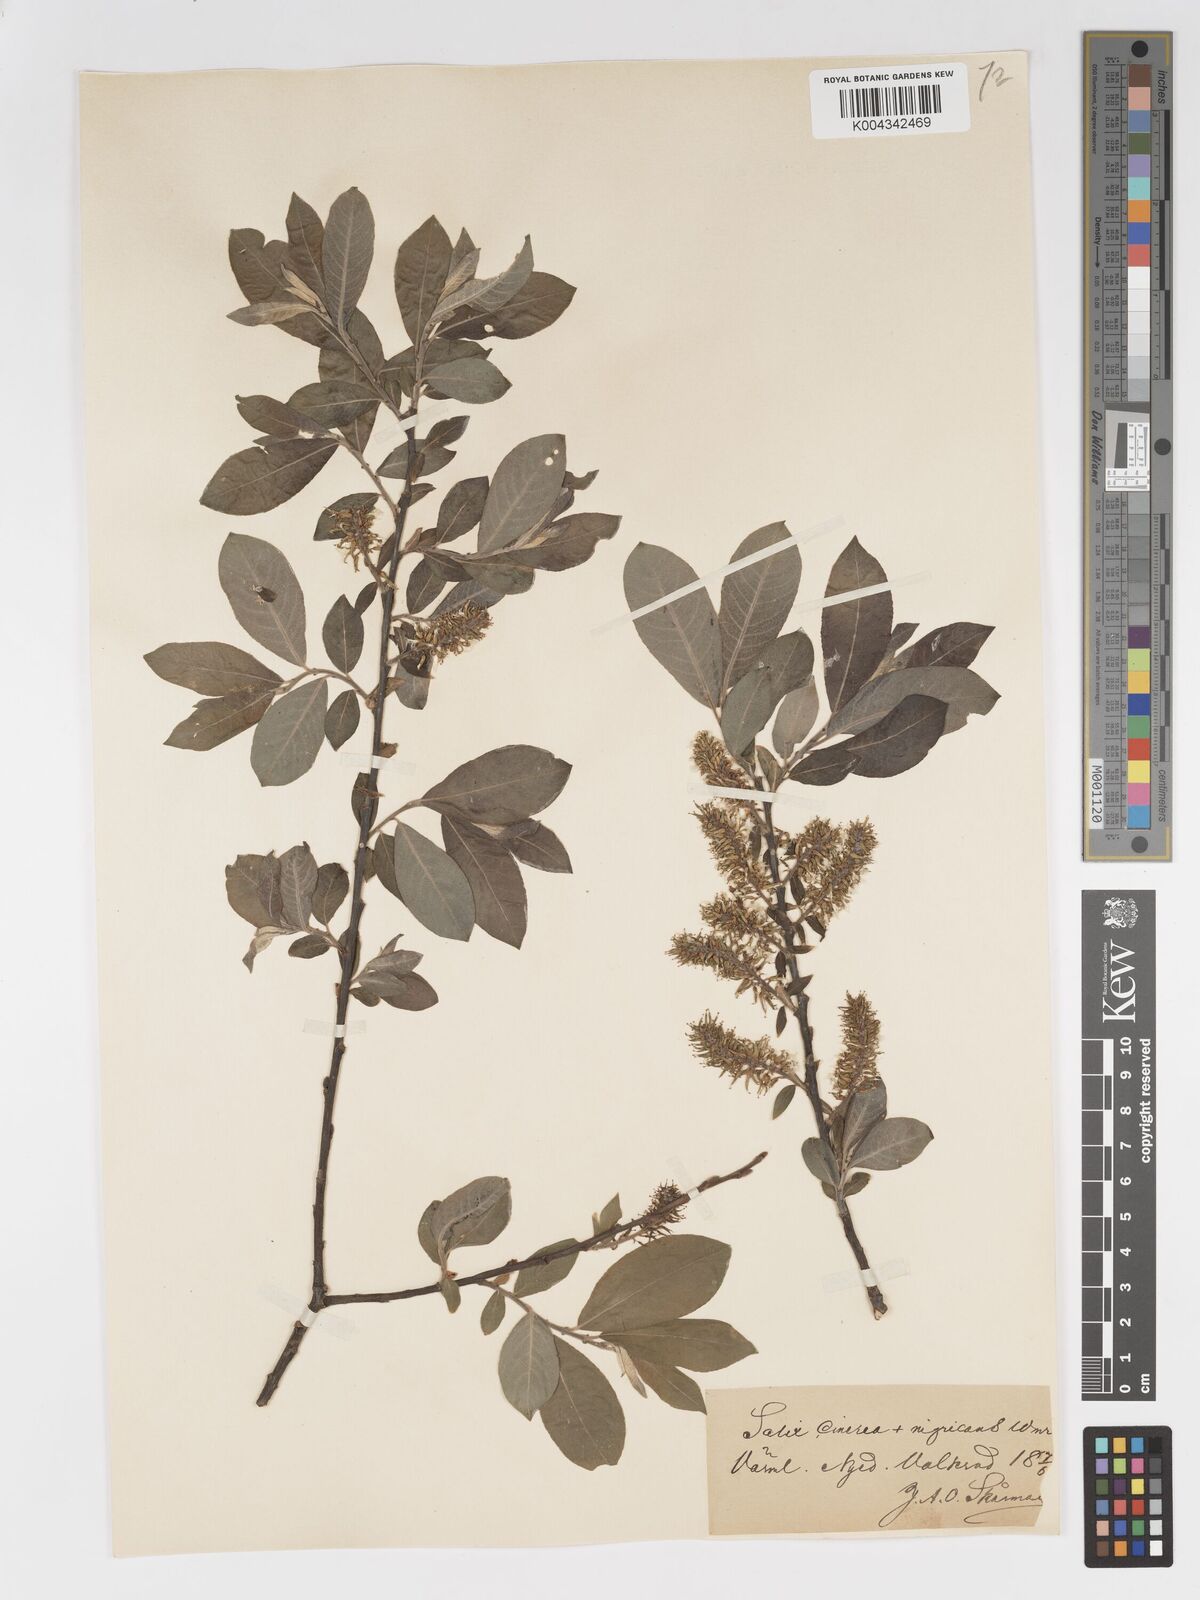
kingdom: Plantae
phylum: Tracheophyta
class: Magnoliopsida
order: Malpighiales
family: Salicaceae
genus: Salix
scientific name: Salix
